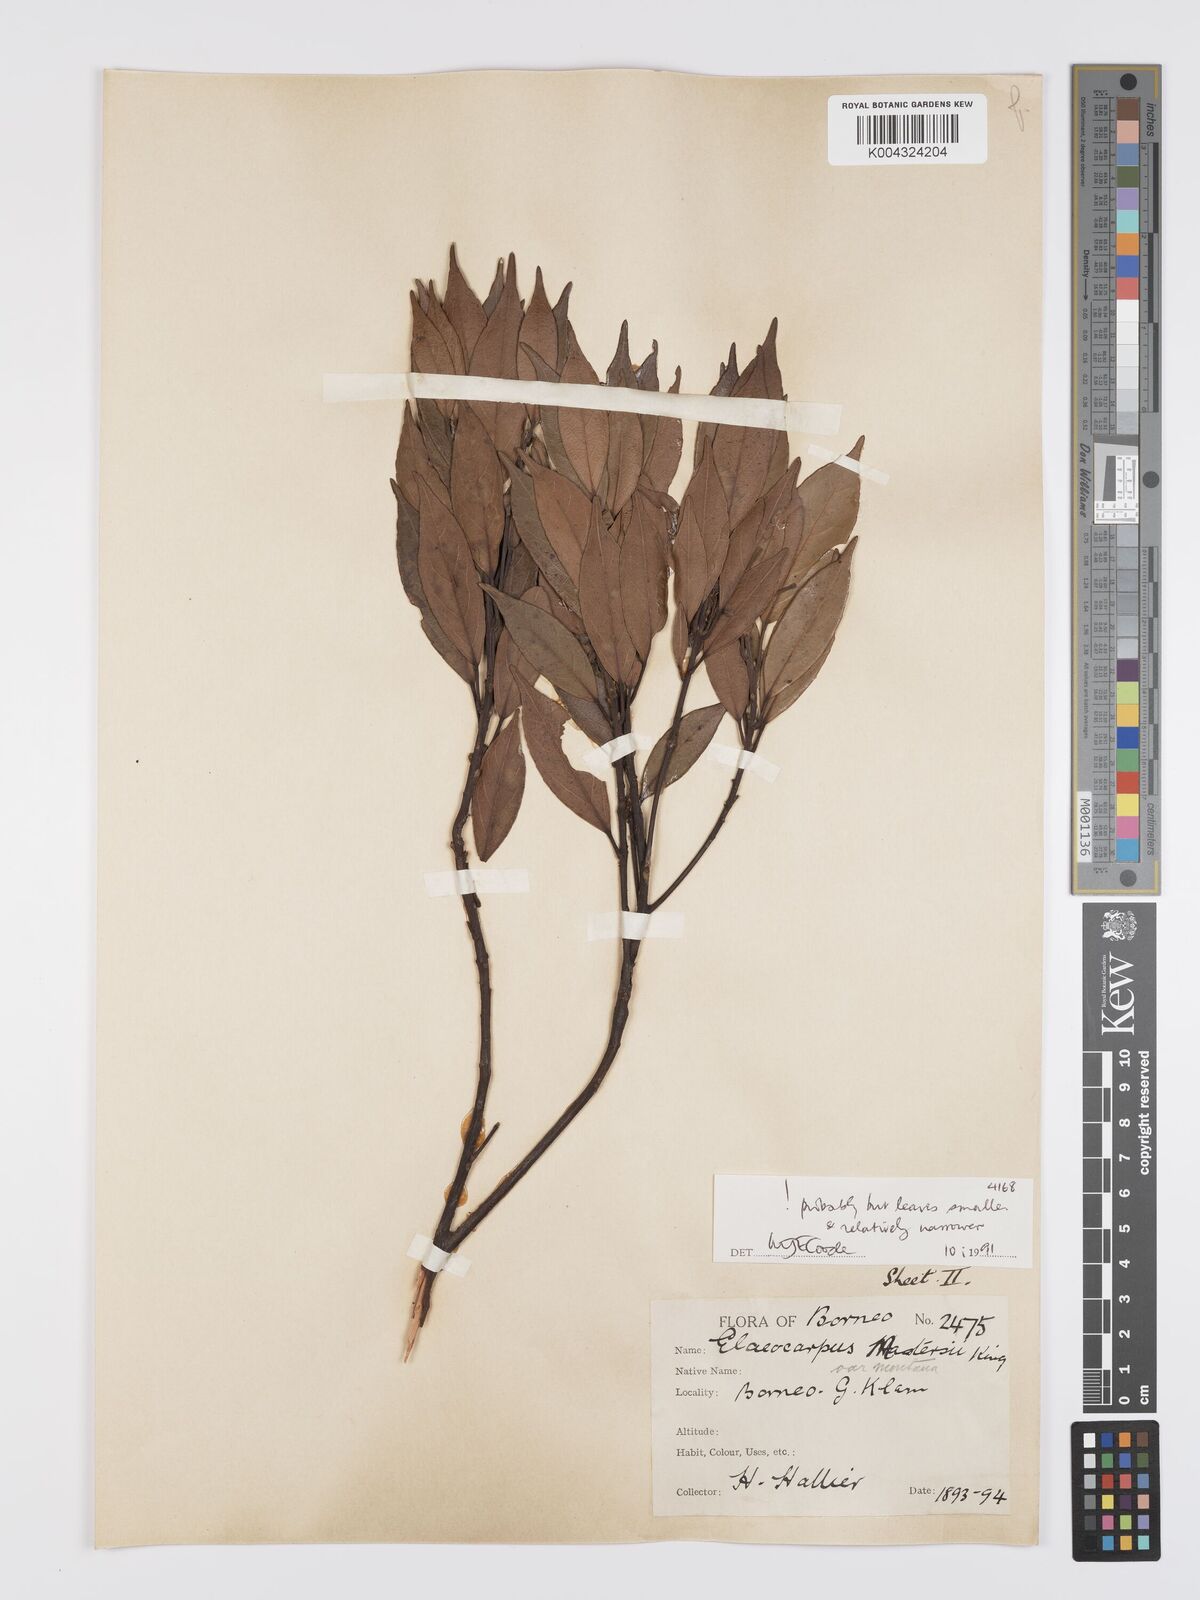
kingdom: Plantae
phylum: Tracheophyta
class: Magnoliopsida
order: Oxalidales
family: Elaeocarpaceae
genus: Elaeocarpus
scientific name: Elaeocarpus mastersii
